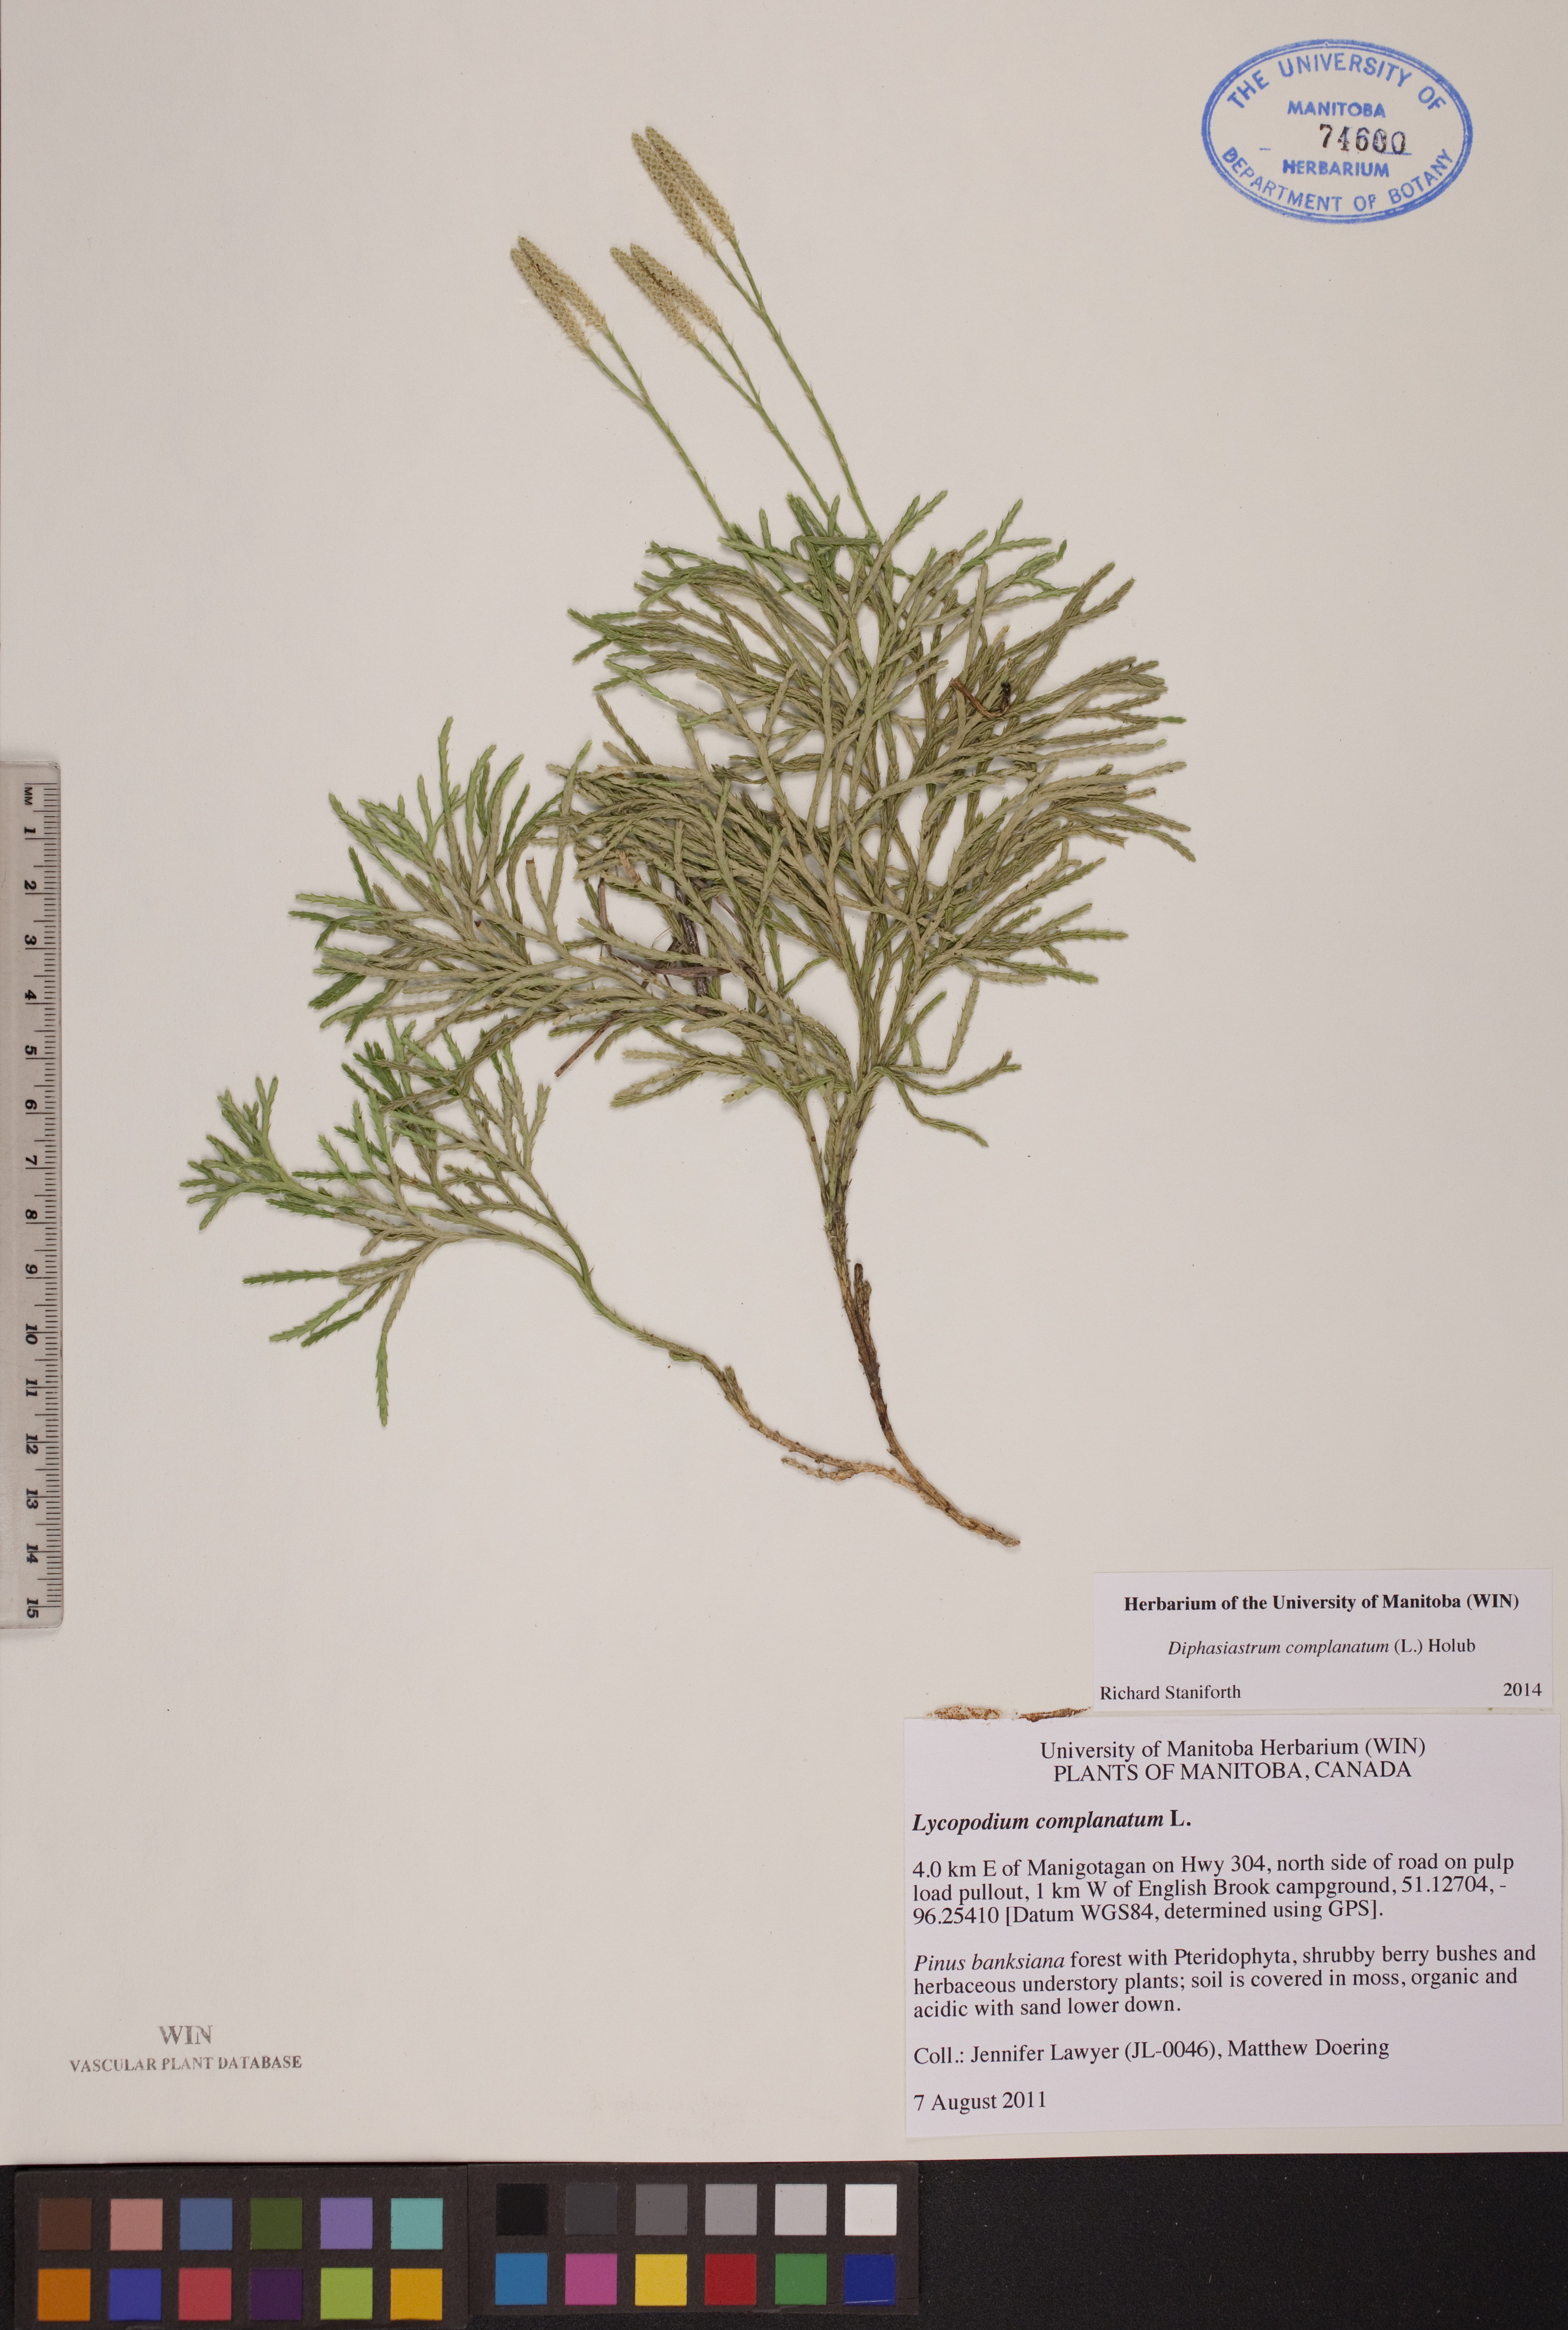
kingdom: Plantae
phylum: Tracheophyta
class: Lycopodiopsida
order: Lycopodiales
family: Lycopodiaceae
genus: Diphasiastrum
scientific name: Diphasiastrum complanatum
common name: Northern running-pine
